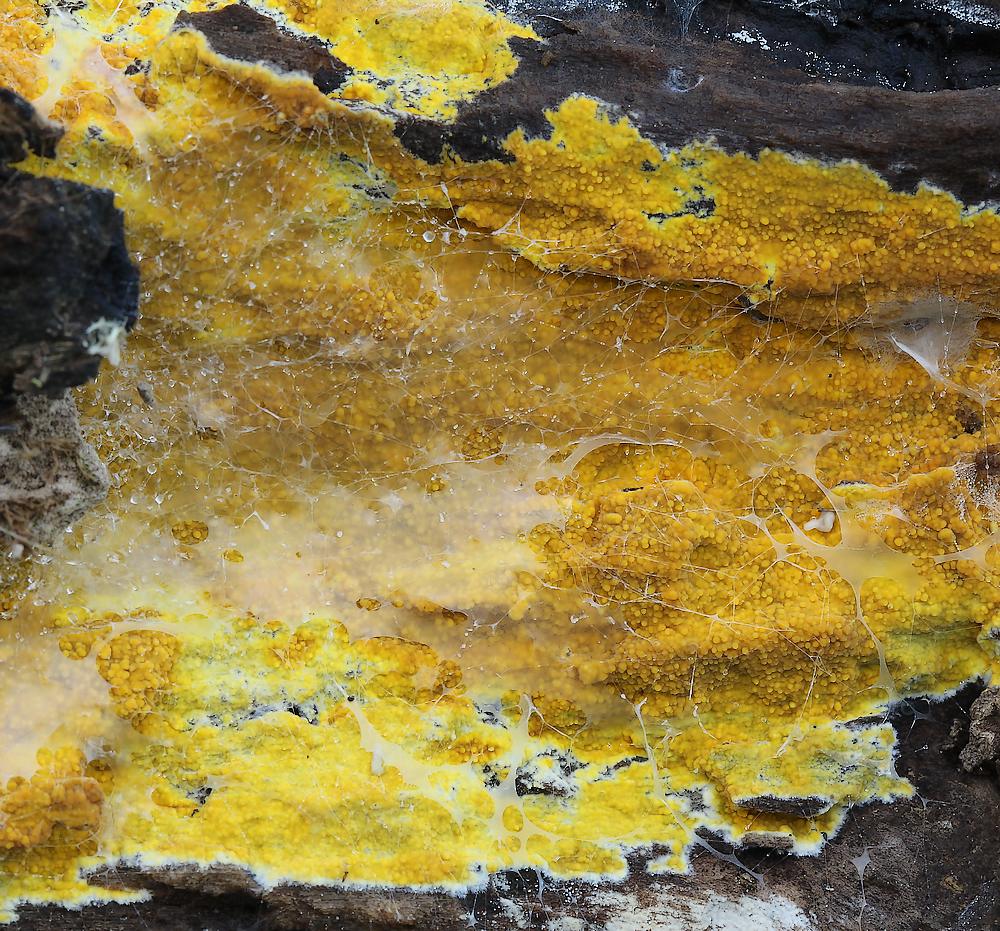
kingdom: Fungi
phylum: Basidiomycota
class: Agaricomycetes
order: Polyporales
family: Meruliaceae
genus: Phlebiodontia
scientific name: Phlebiodontia subochracea
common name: svovl-åresvamp
